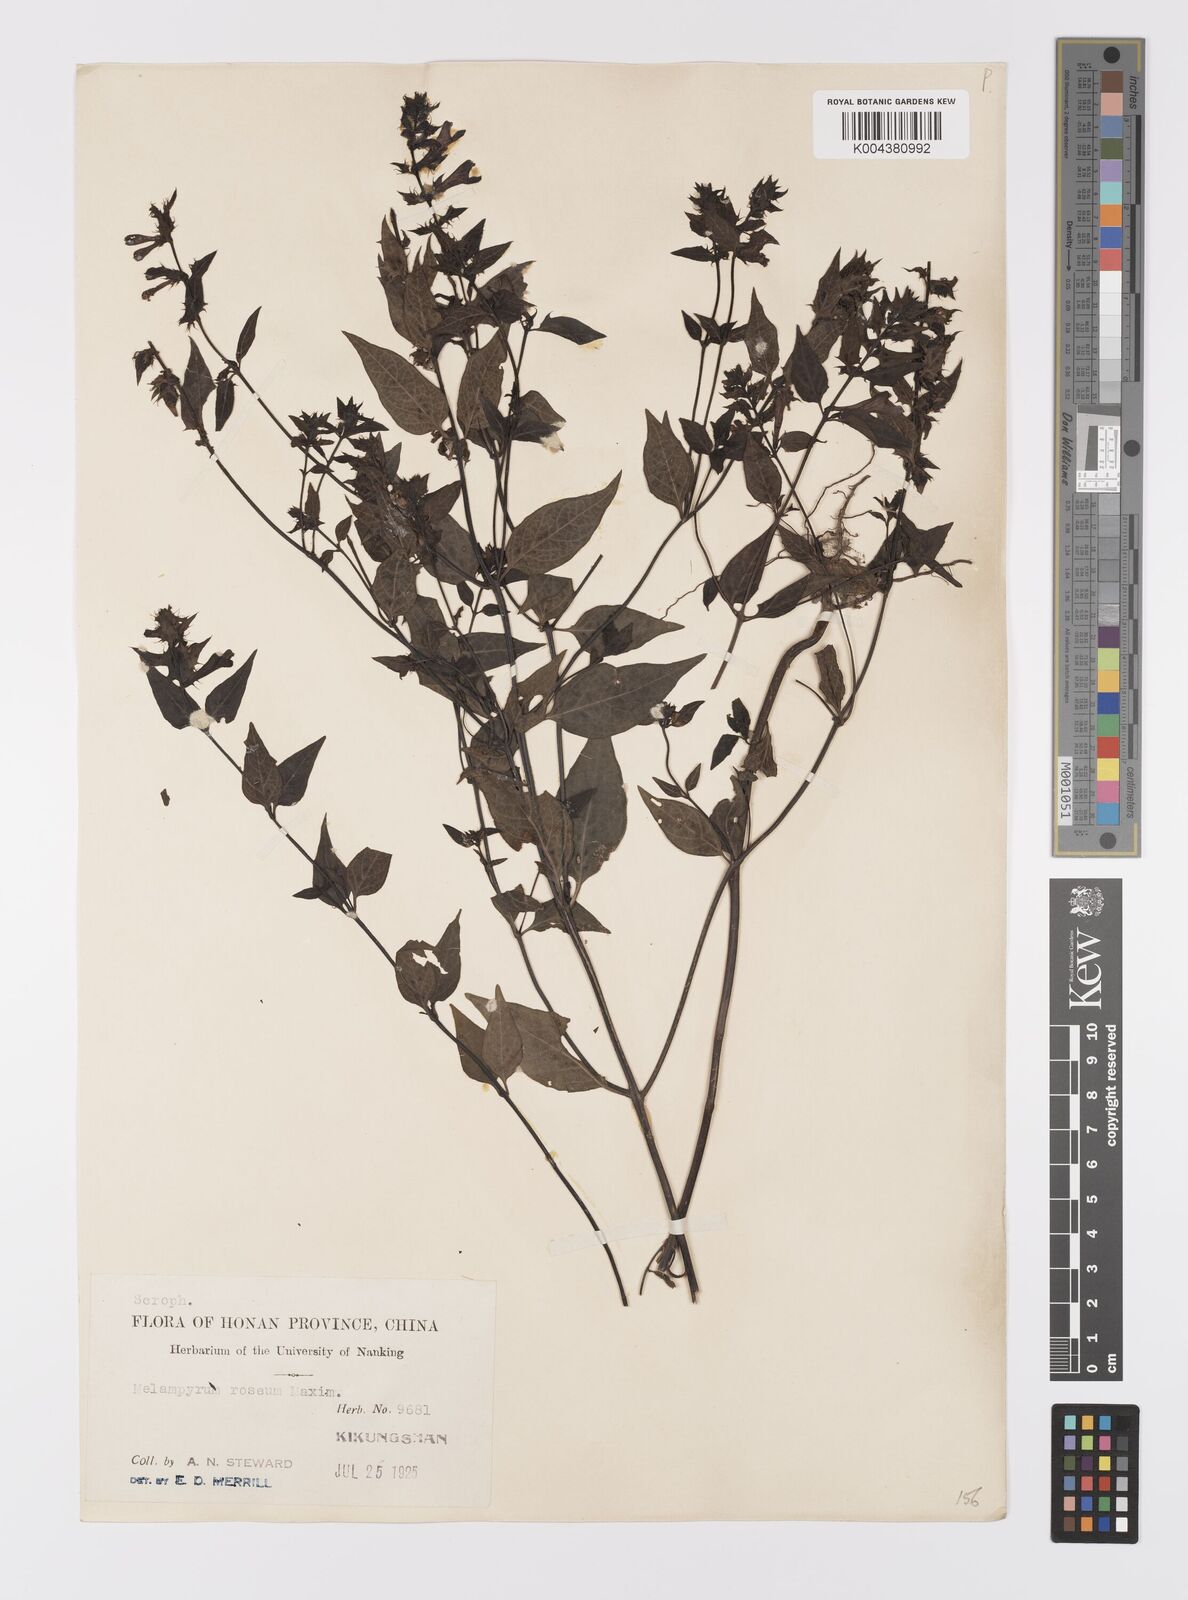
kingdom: Plantae
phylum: Tracheophyta
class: Magnoliopsida
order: Lamiales
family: Orobanchaceae
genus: Melampyrum
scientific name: Melampyrum roseum
